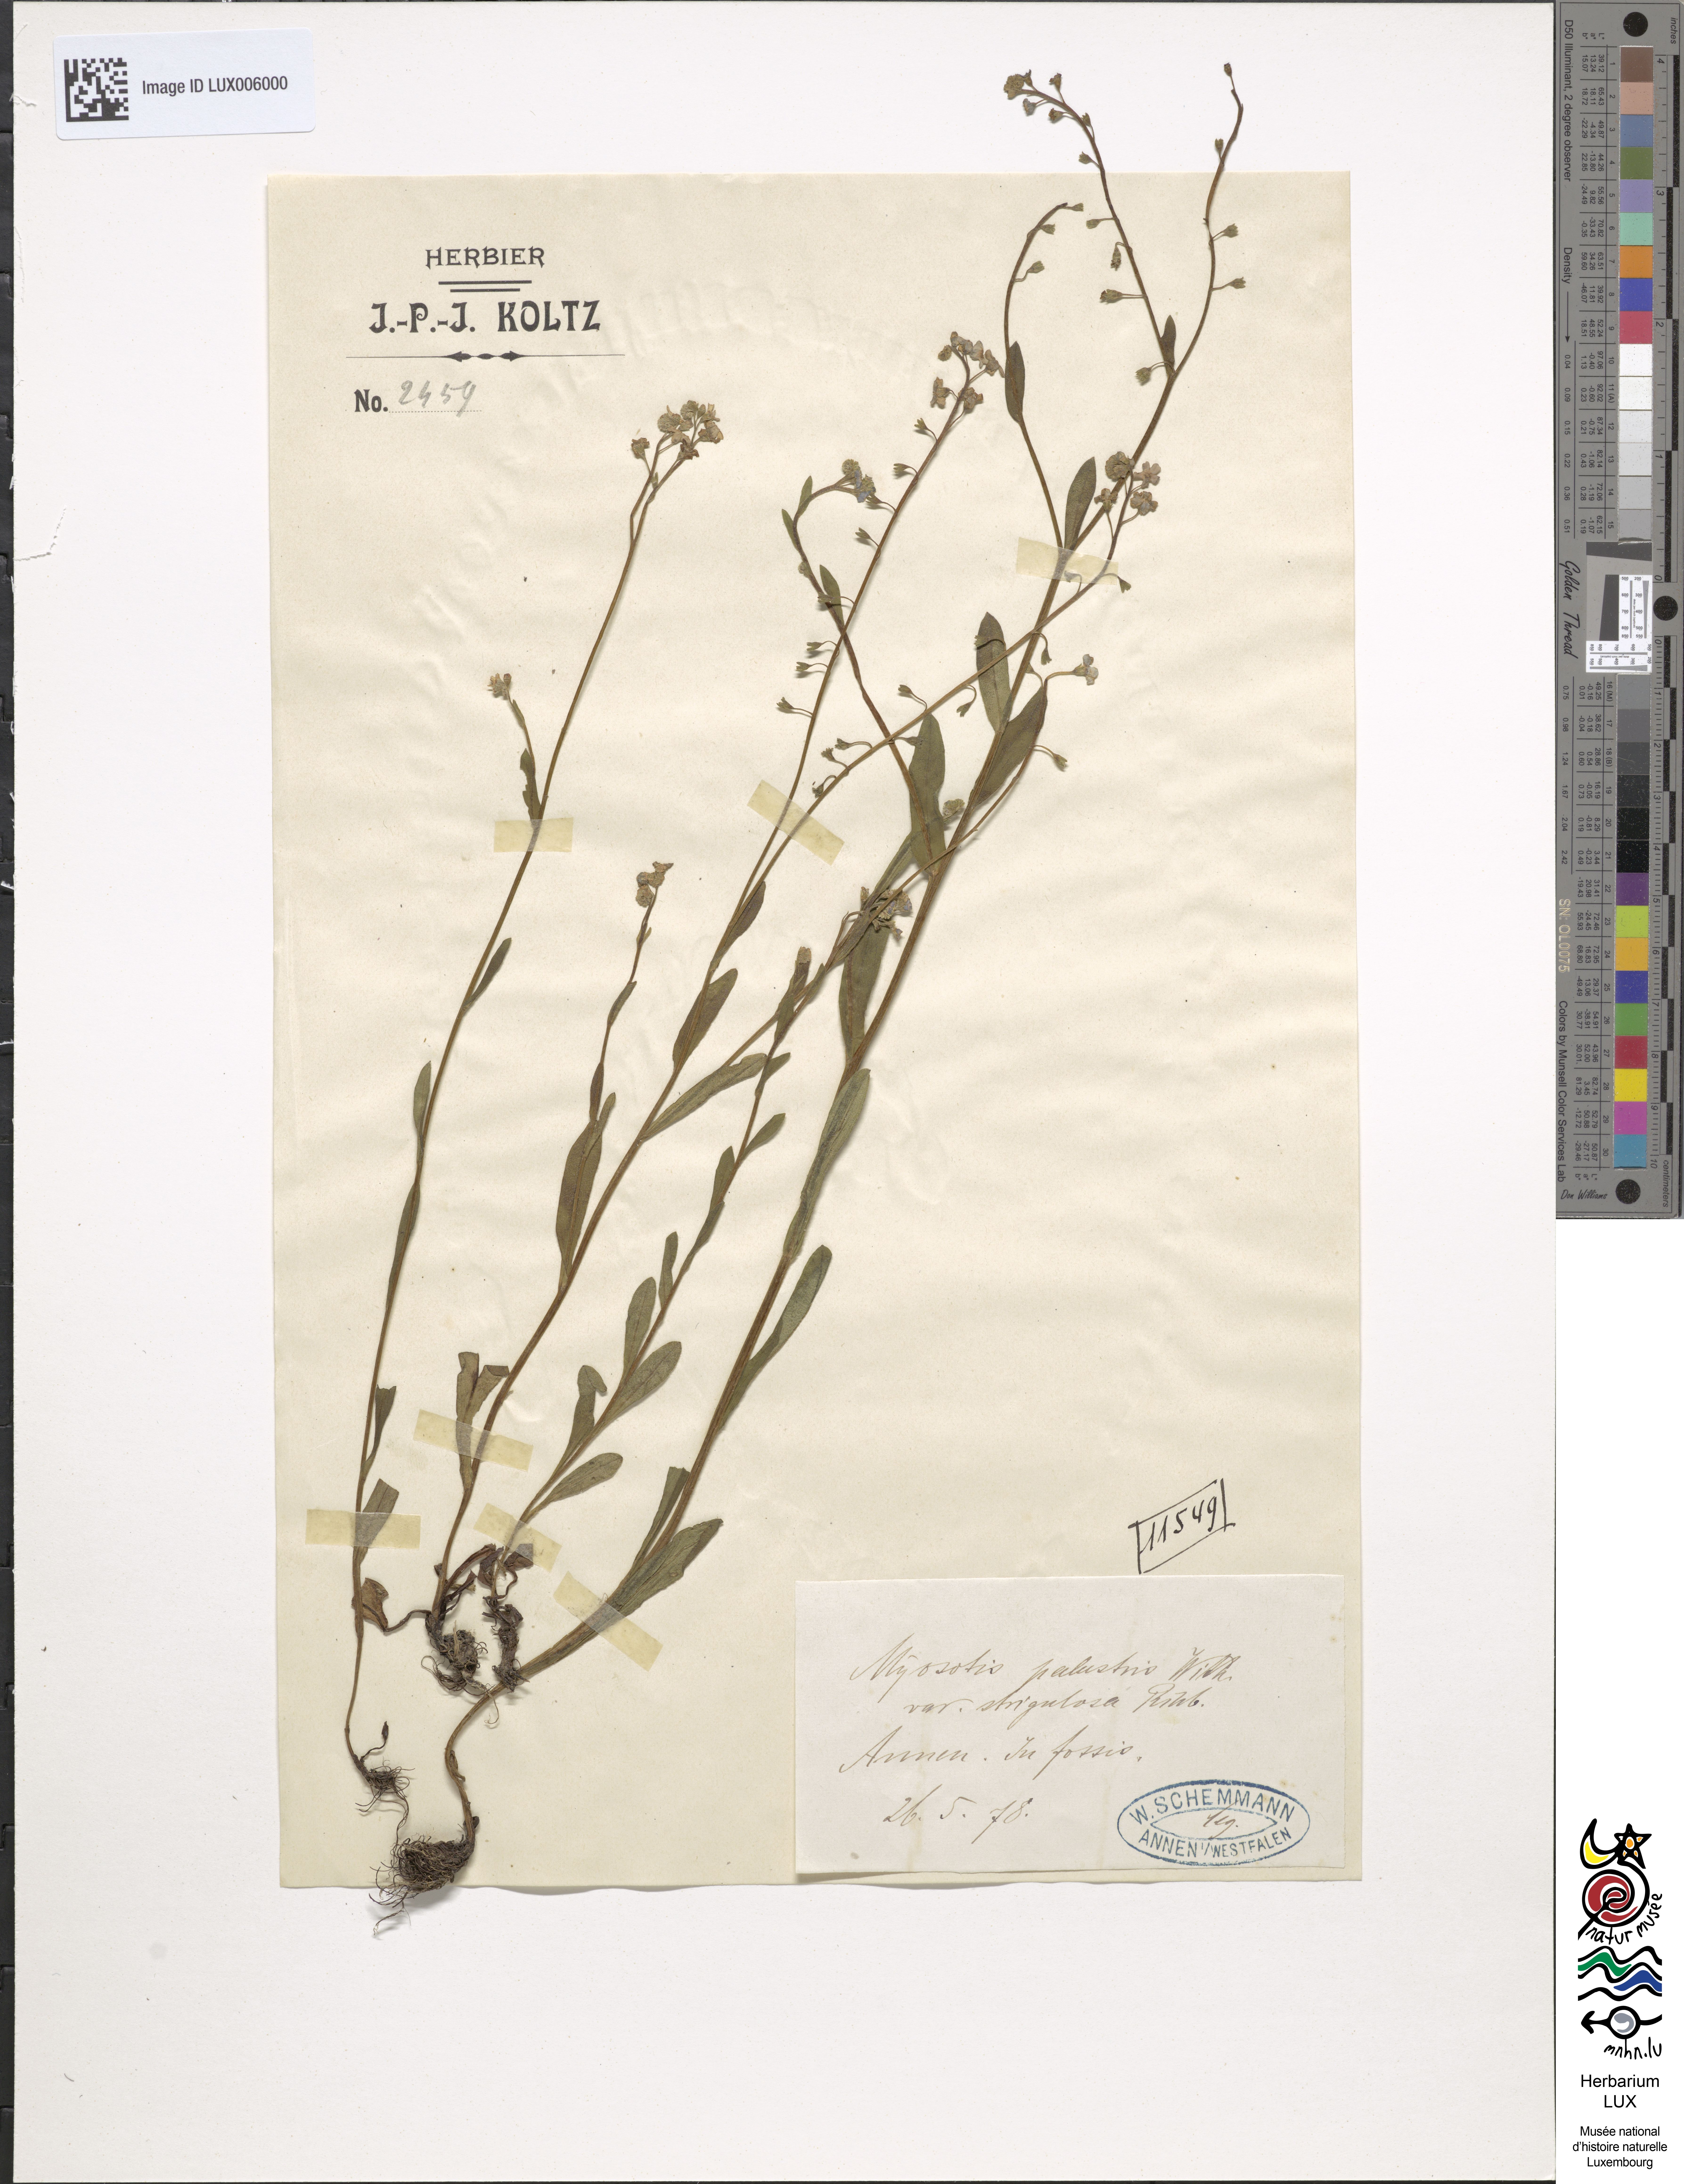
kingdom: Plantae
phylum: Tracheophyta
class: Magnoliopsida
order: Boraginales
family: Boraginaceae
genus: Myosotis
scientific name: Myosotis nemorosa
